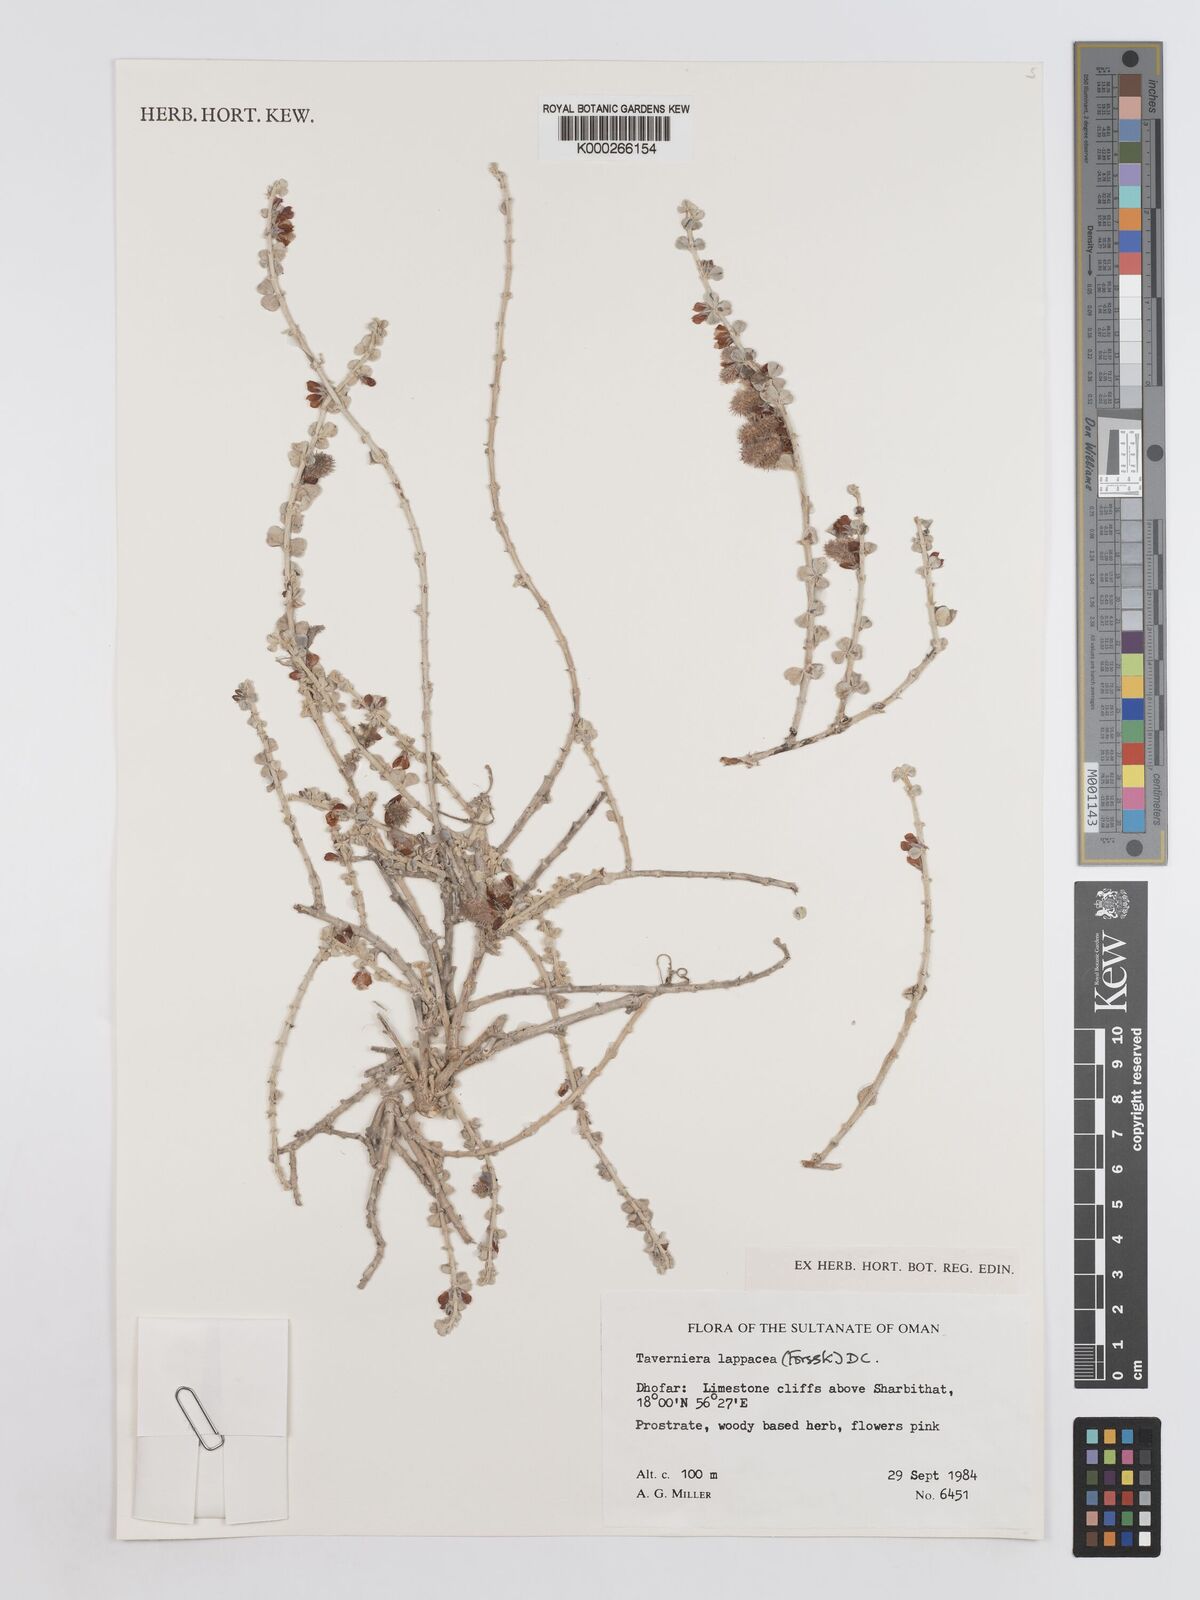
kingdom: Plantae
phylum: Tracheophyta
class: Magnoliopsida
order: Fabales
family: Fabaceae
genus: Taverniera
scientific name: Taverniera lappacea
